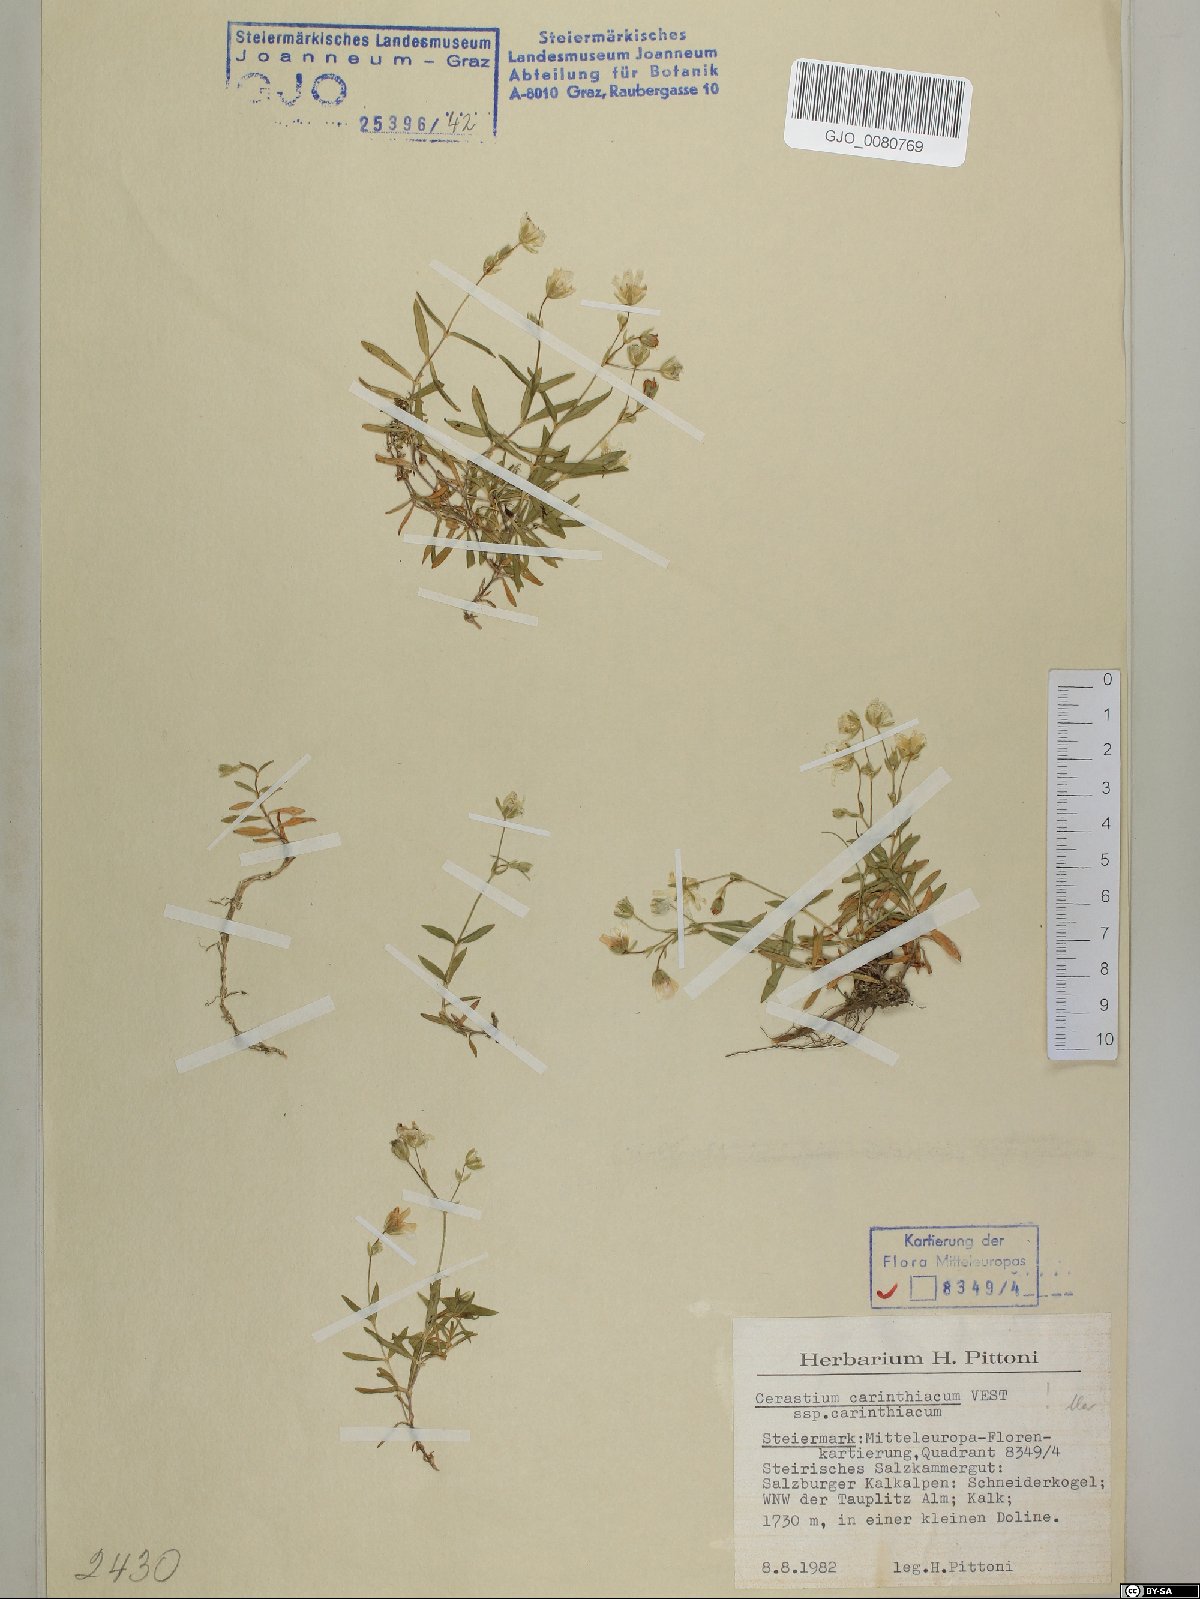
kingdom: Plantae
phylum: Tracheophyta
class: Magnoliopsida
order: Caryophyllales
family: Caryophyllaceae
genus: Cerastium
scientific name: Cerastium carinthiacum
